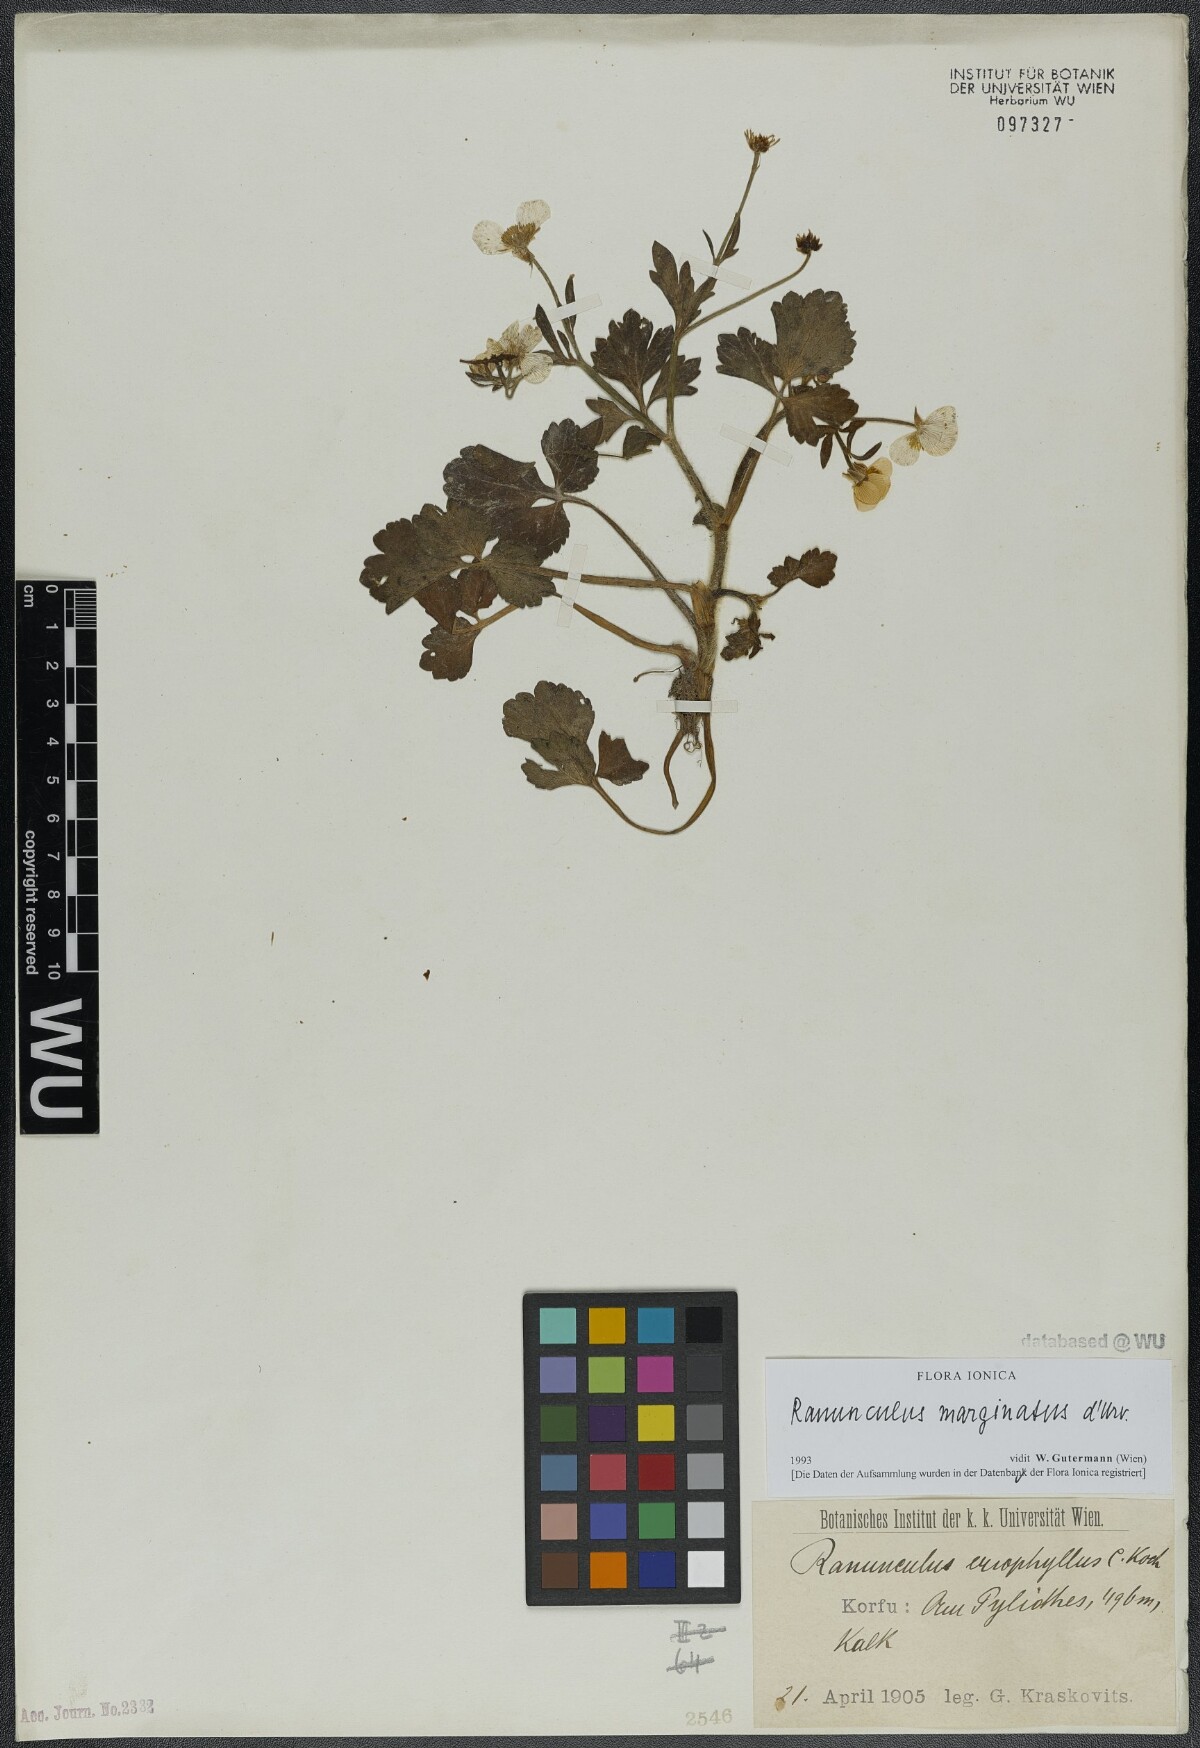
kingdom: Plantae
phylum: Tracheophyta
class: Magnoliopsida
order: Ranunculales
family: Ranunculaceae
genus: Ranunculus
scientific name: Ranunculus marginatus
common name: St. martin's buttercup
